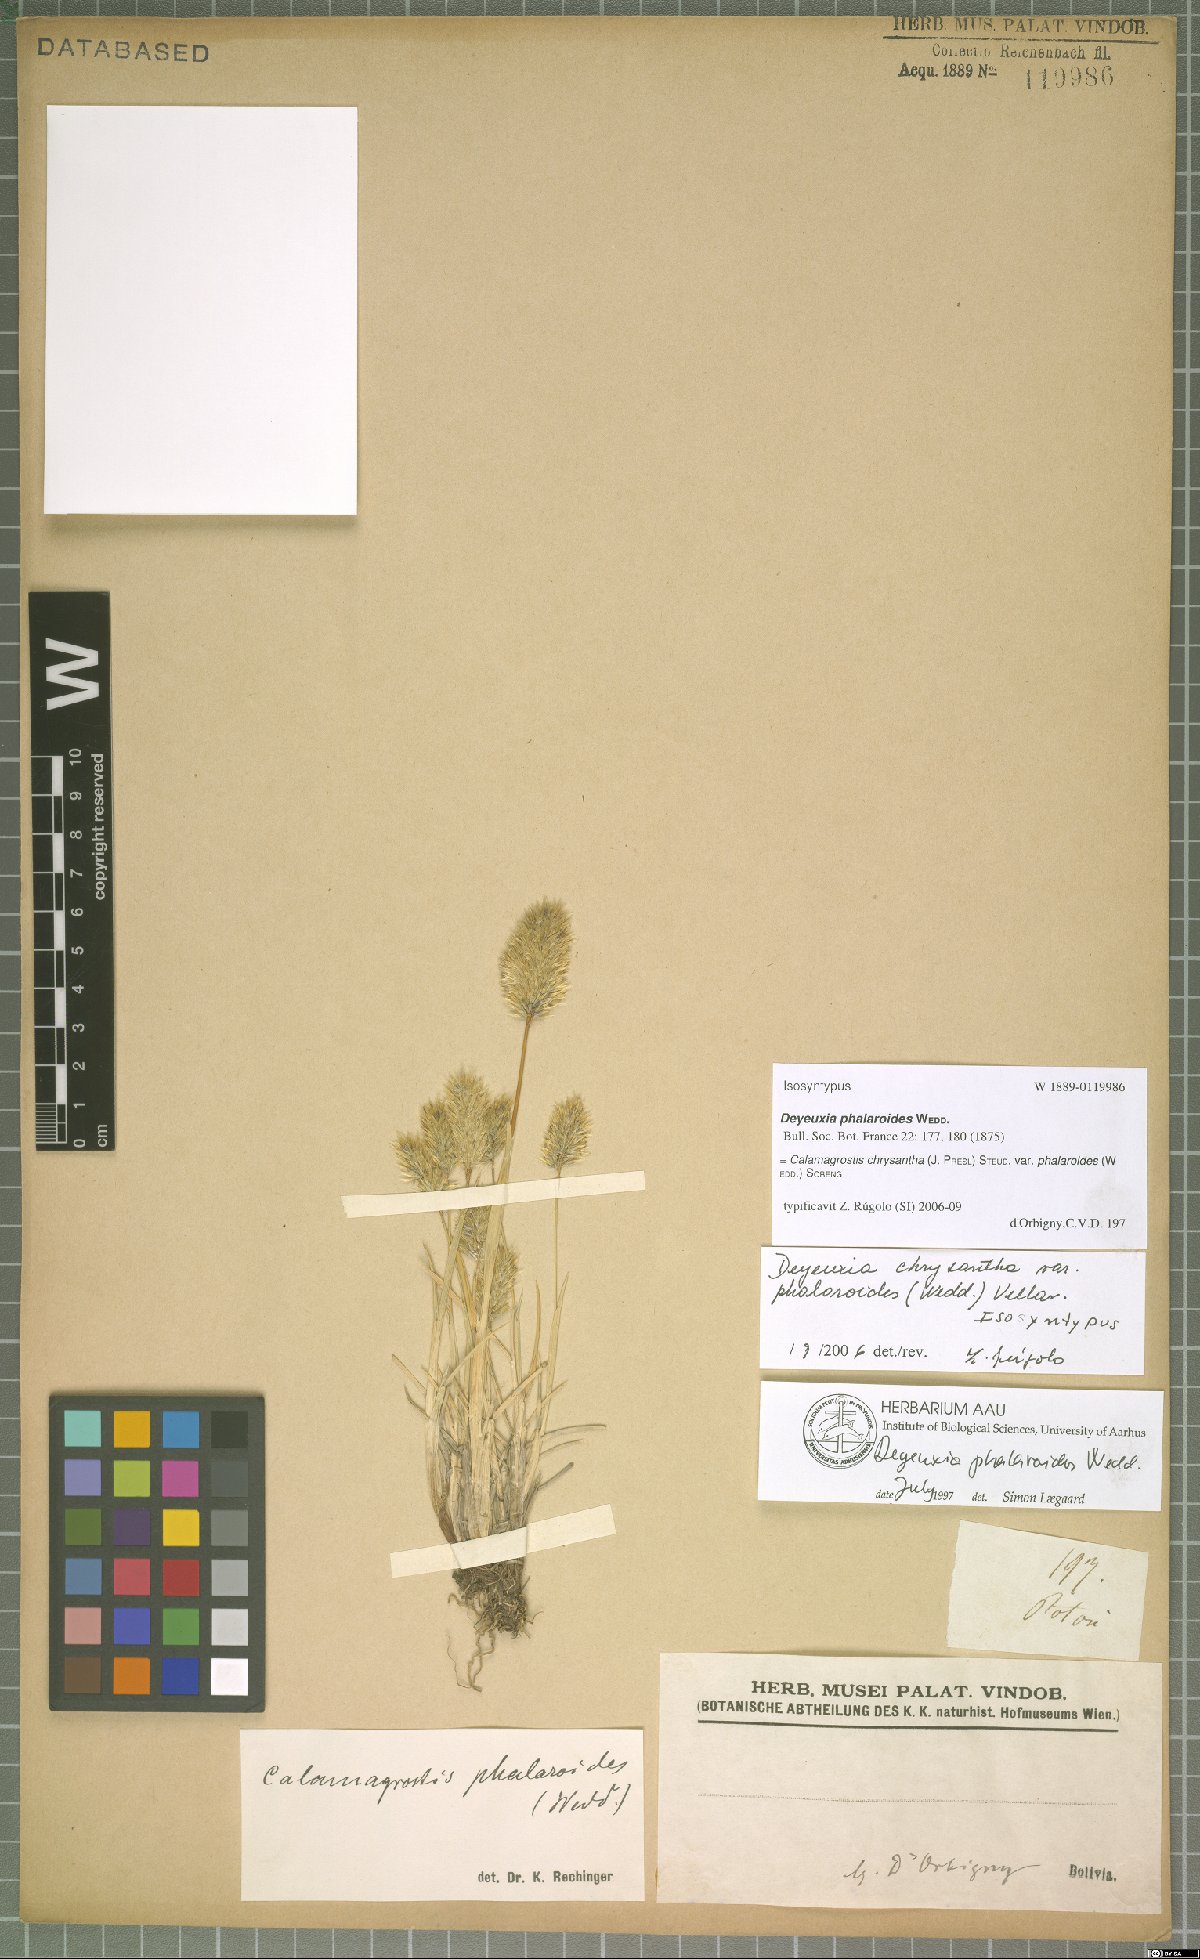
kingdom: Plantae
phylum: Tracheophyta
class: Liliopsida
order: Poales
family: Poaceae
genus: Deschampsia
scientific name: Deschampsia chrysantha
